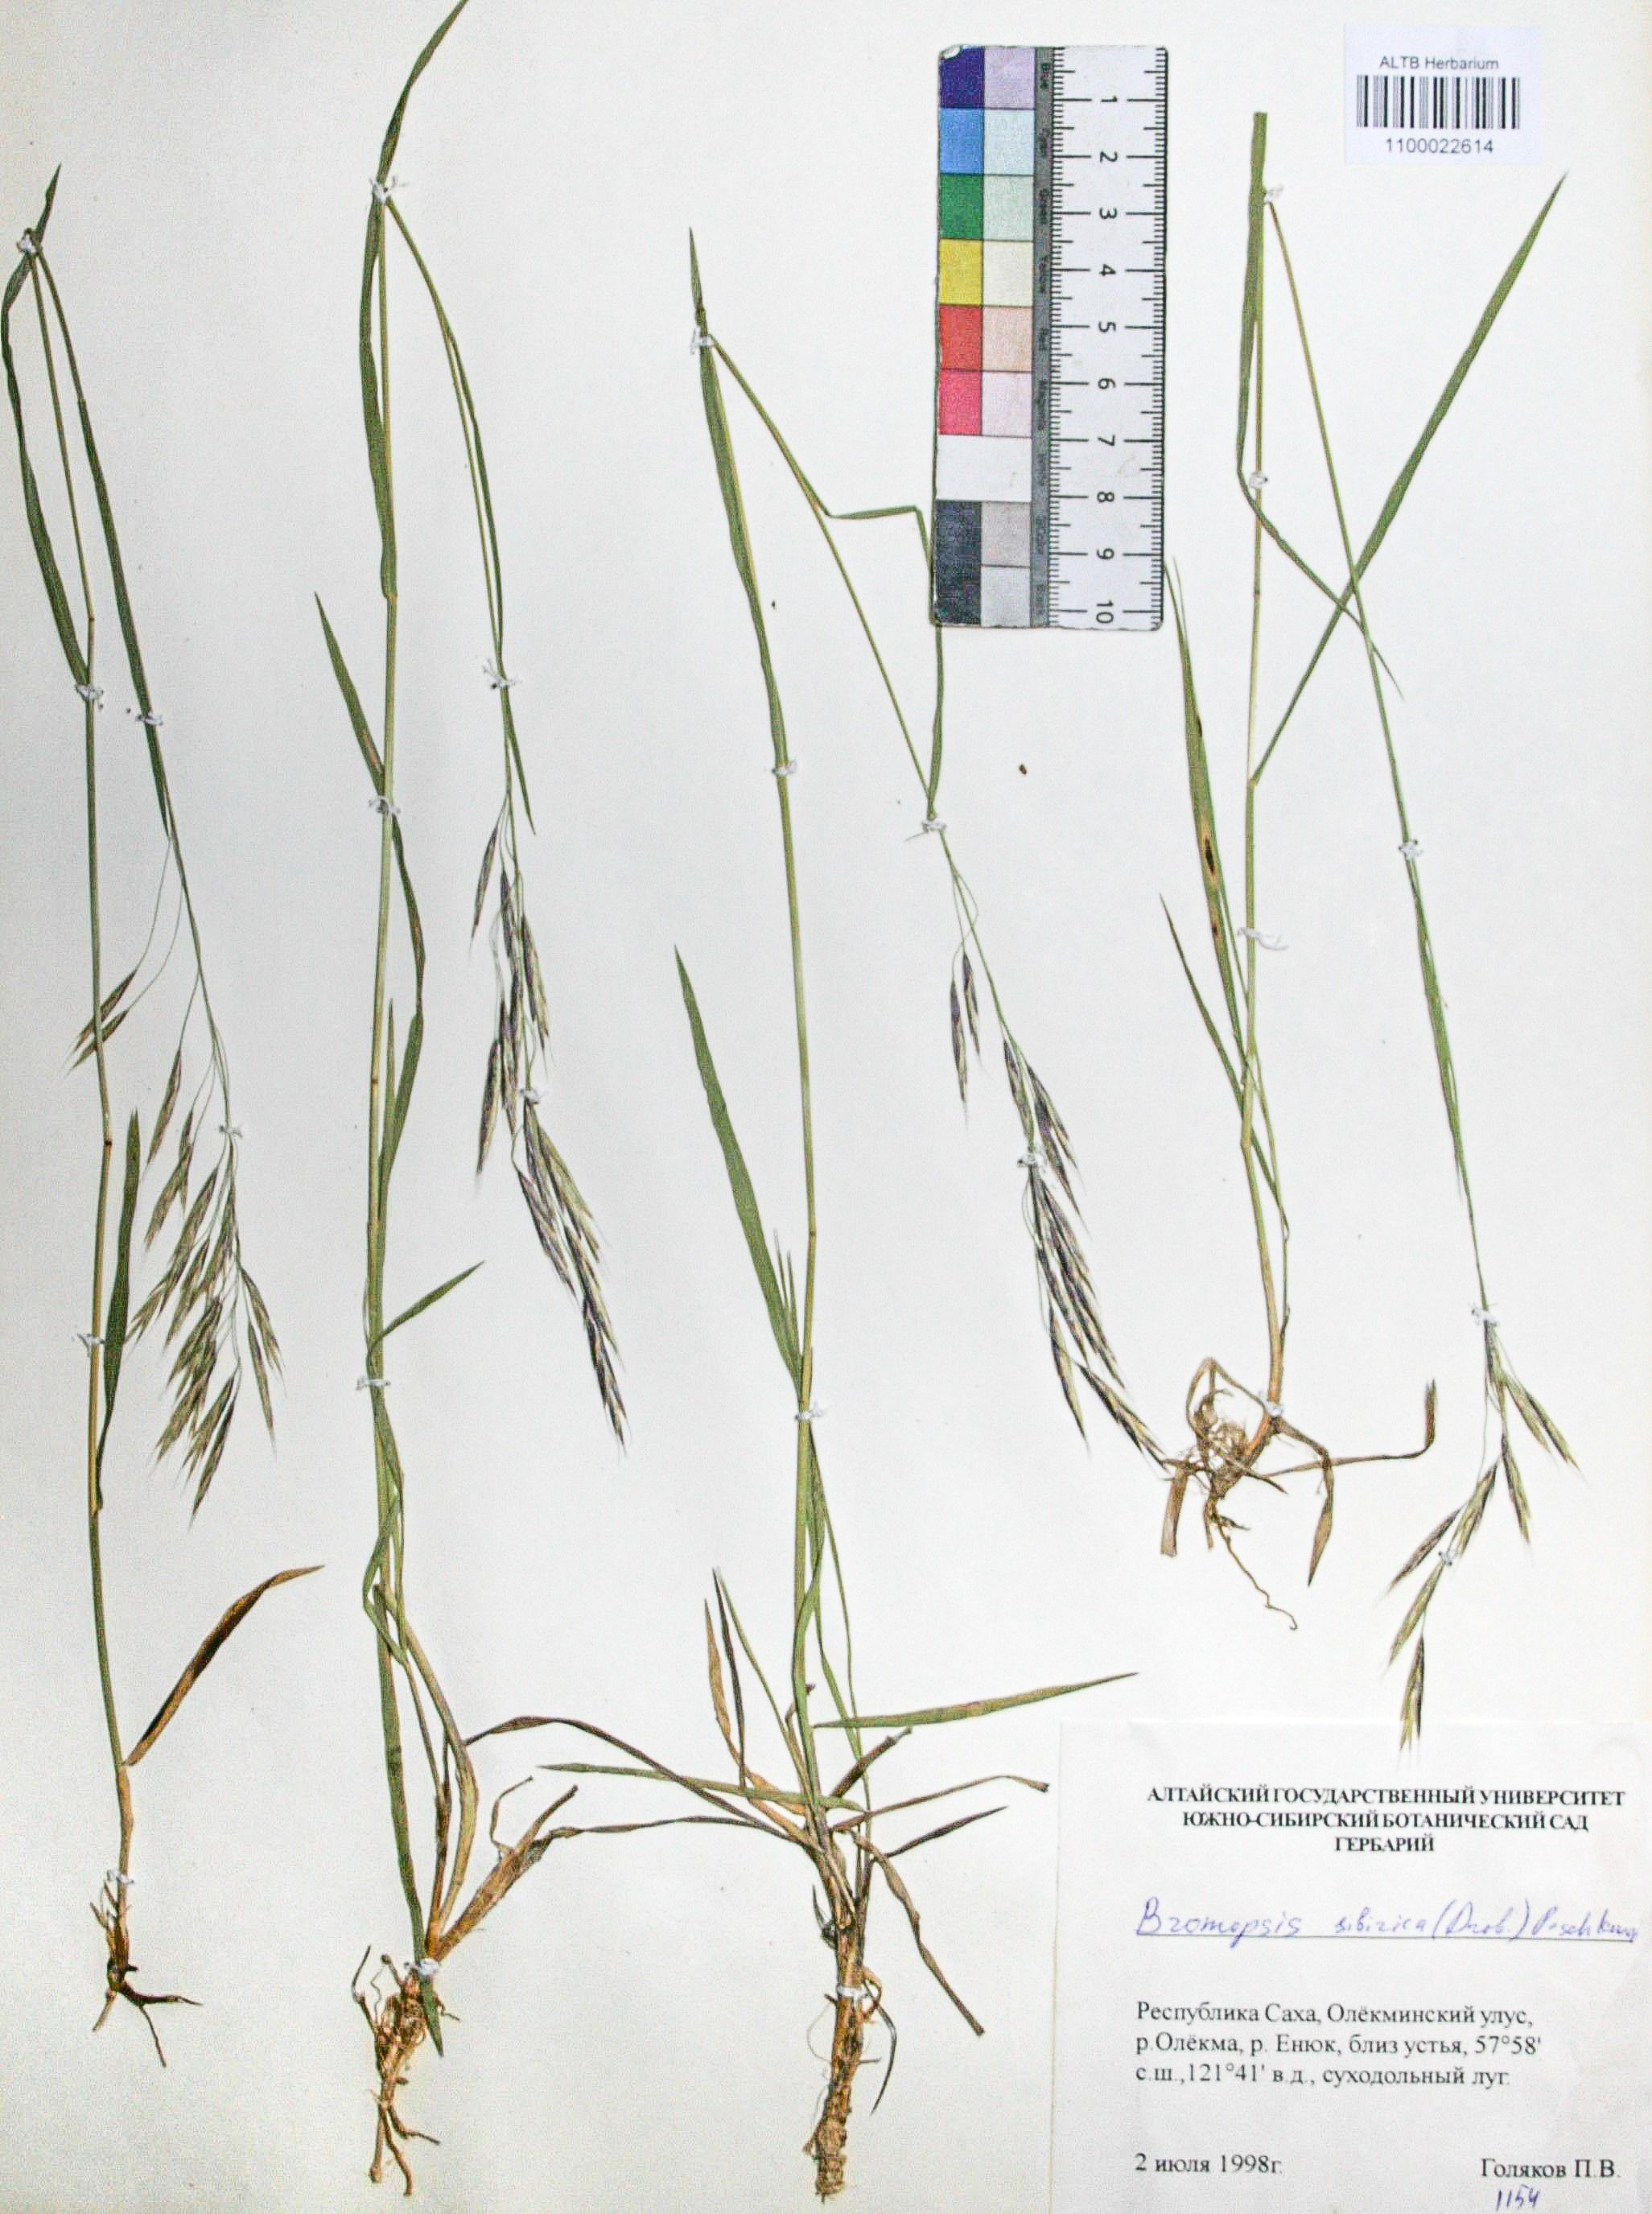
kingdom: Plantae
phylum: Tracheophyta
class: Liliopsida
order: Poales
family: Poaceae
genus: Bromus
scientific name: Bromus pumpellianus
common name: Pumpelly's brome
